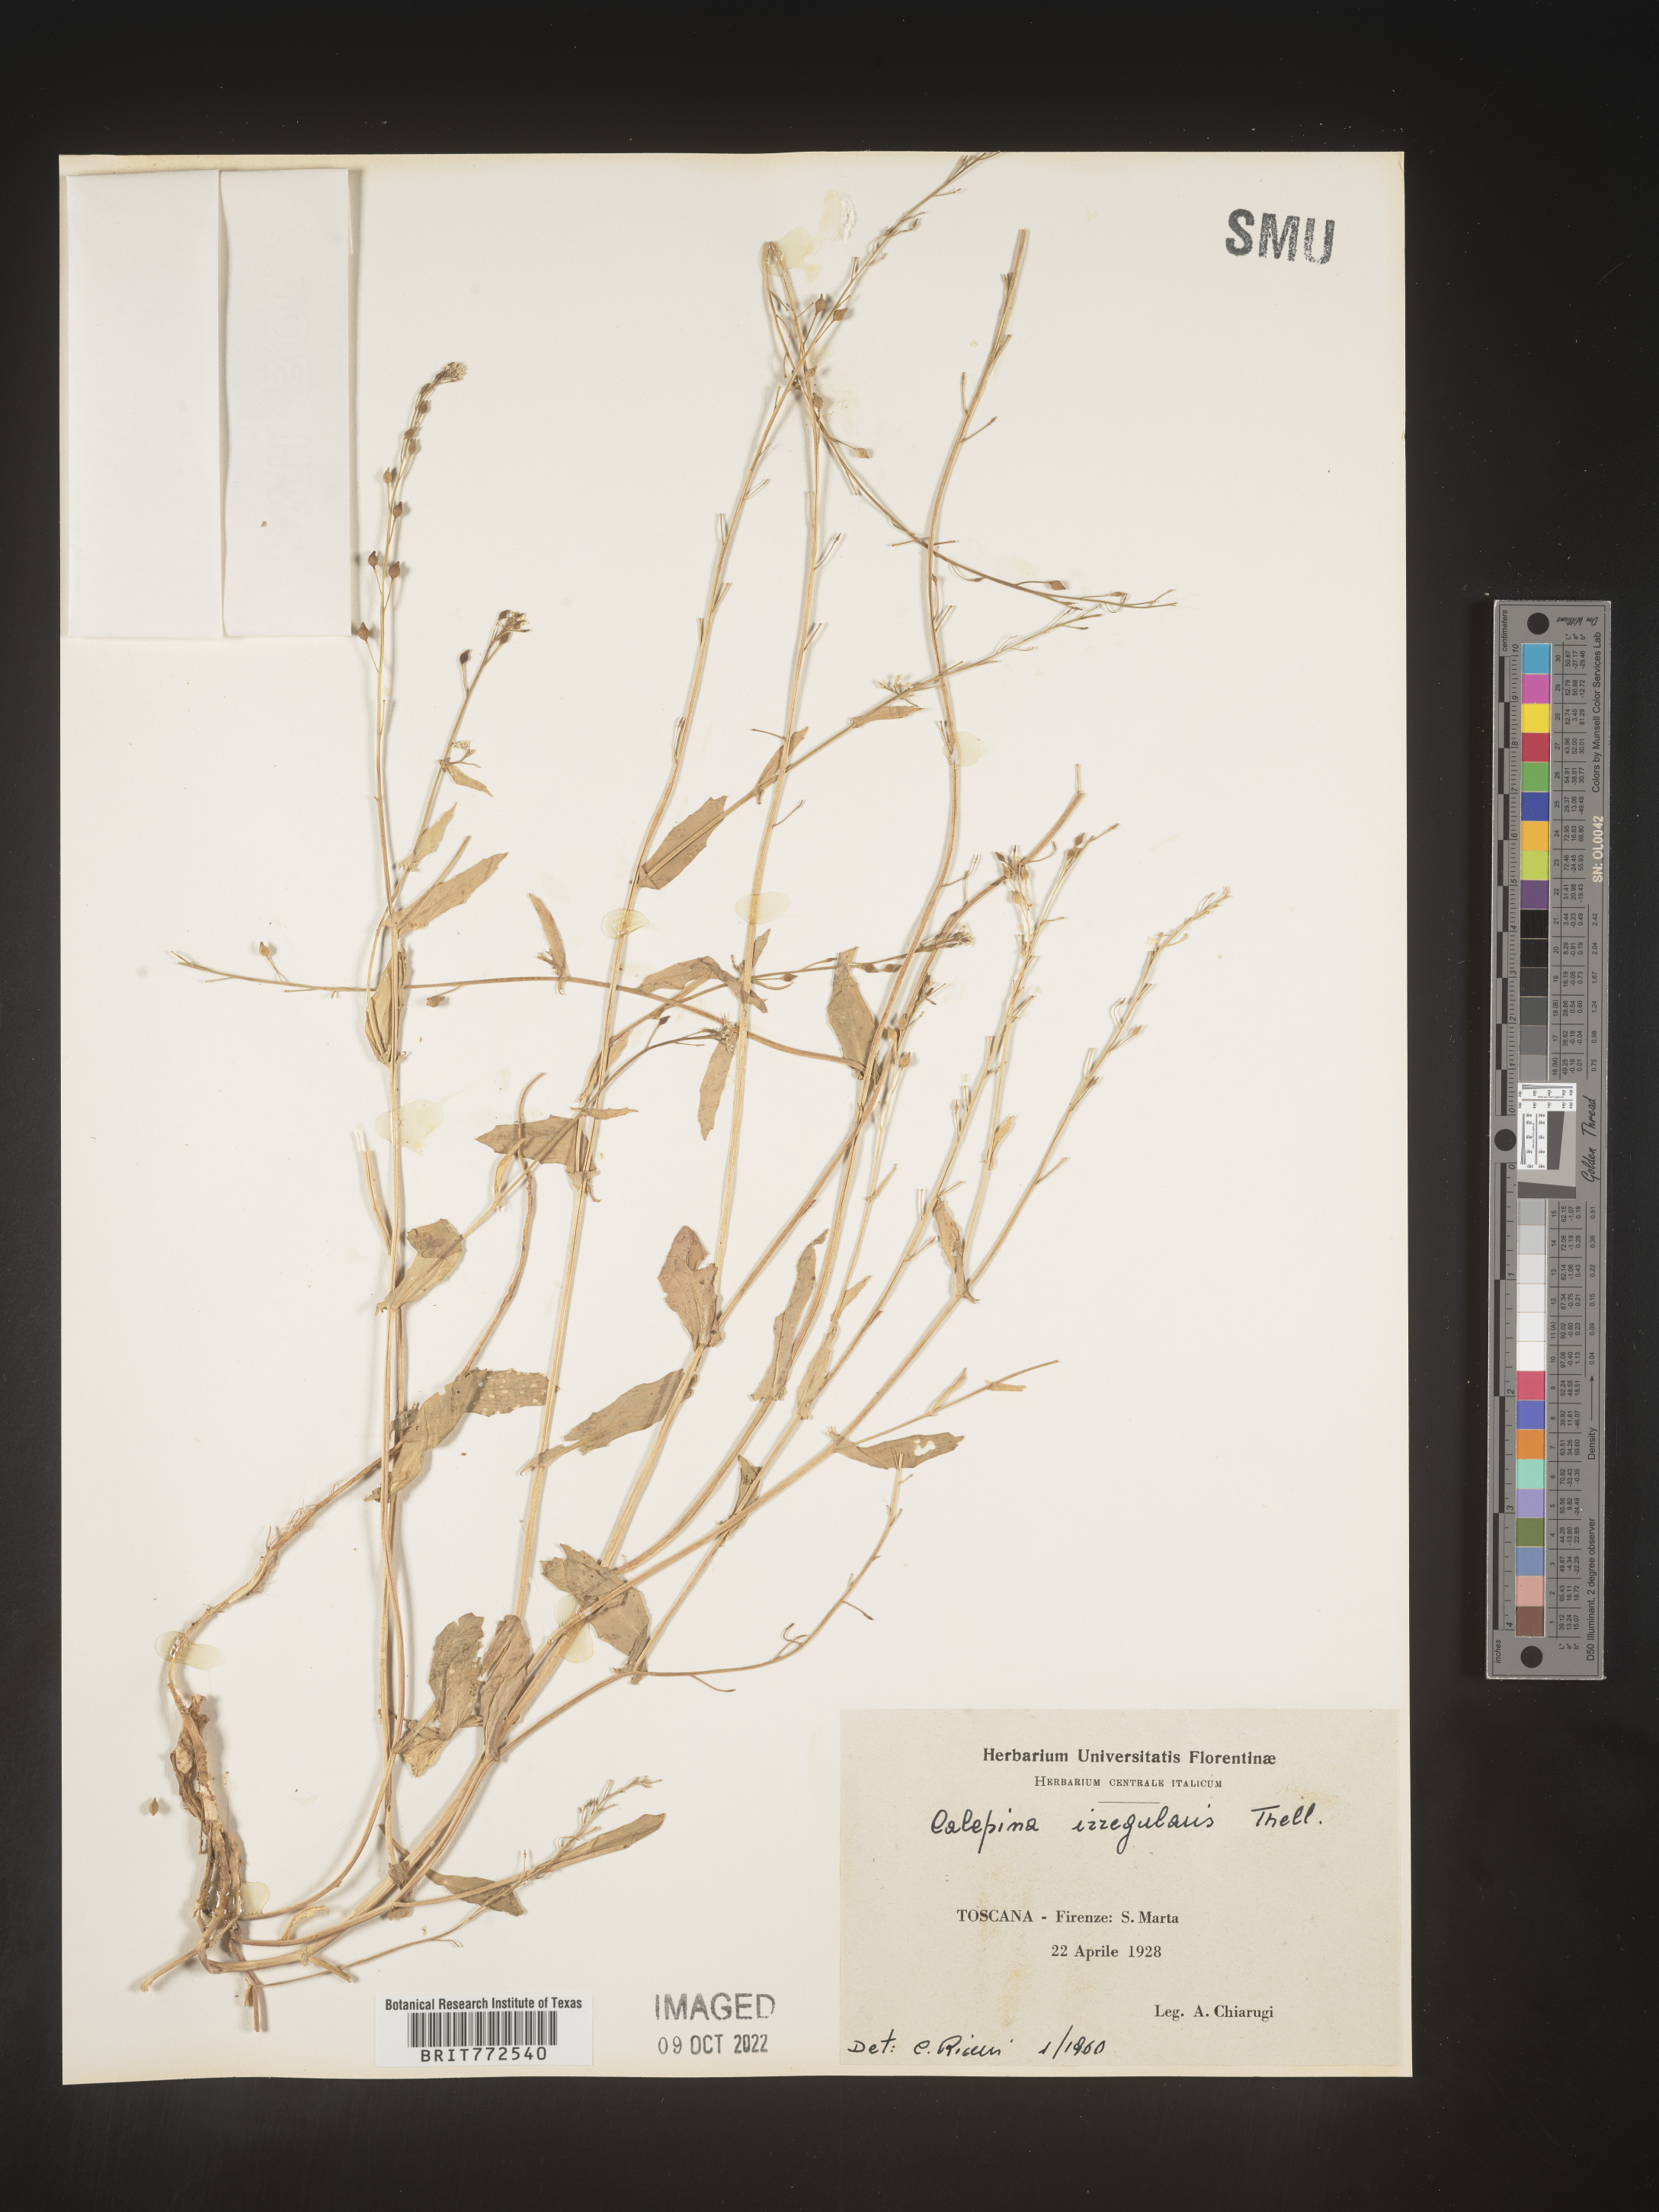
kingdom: Plantae
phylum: Tracheophyta
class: Magnoliopsida
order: Brassicales
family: Brassicaceae
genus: Calepina
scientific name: Calepina
